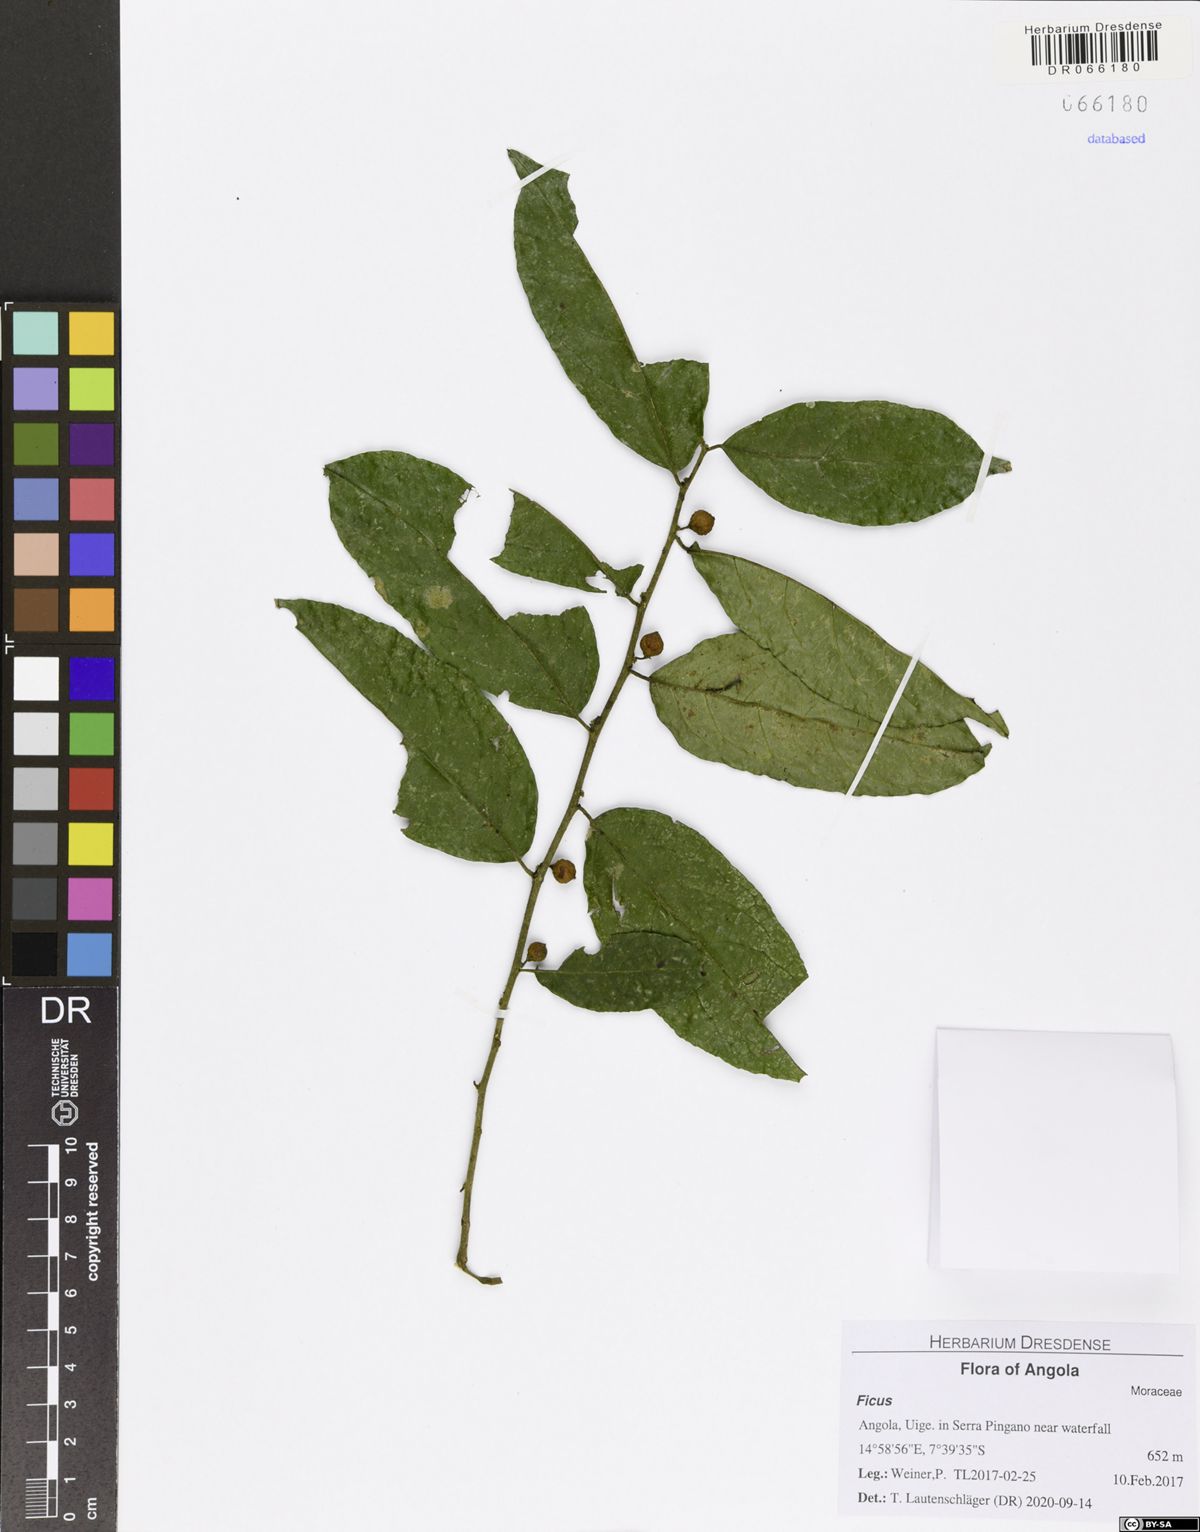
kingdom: Plantae
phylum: Tracheophyta
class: Magnoliopsida
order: Rosales
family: Moraceae
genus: Ficus
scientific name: Ficus asperifolia
